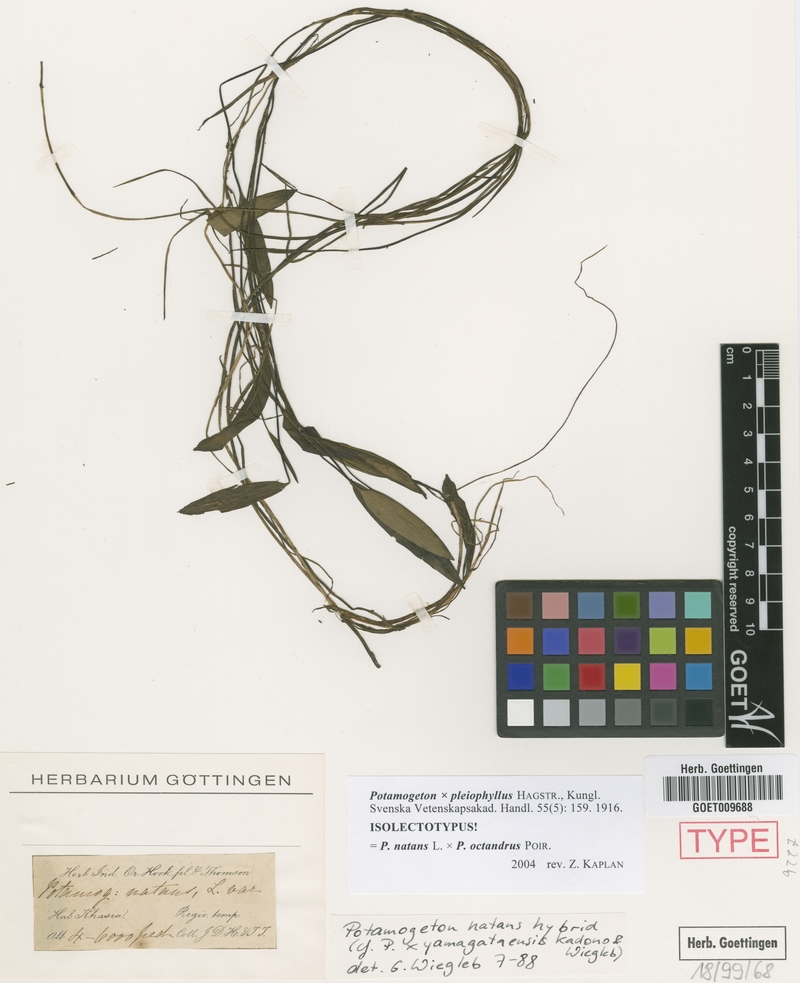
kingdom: Plantae
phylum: Tracheophyta
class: Liliopsida
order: Alismatales
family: Potamogetonaceae
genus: Potamogeton
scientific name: Potamogeton yamagataensis
